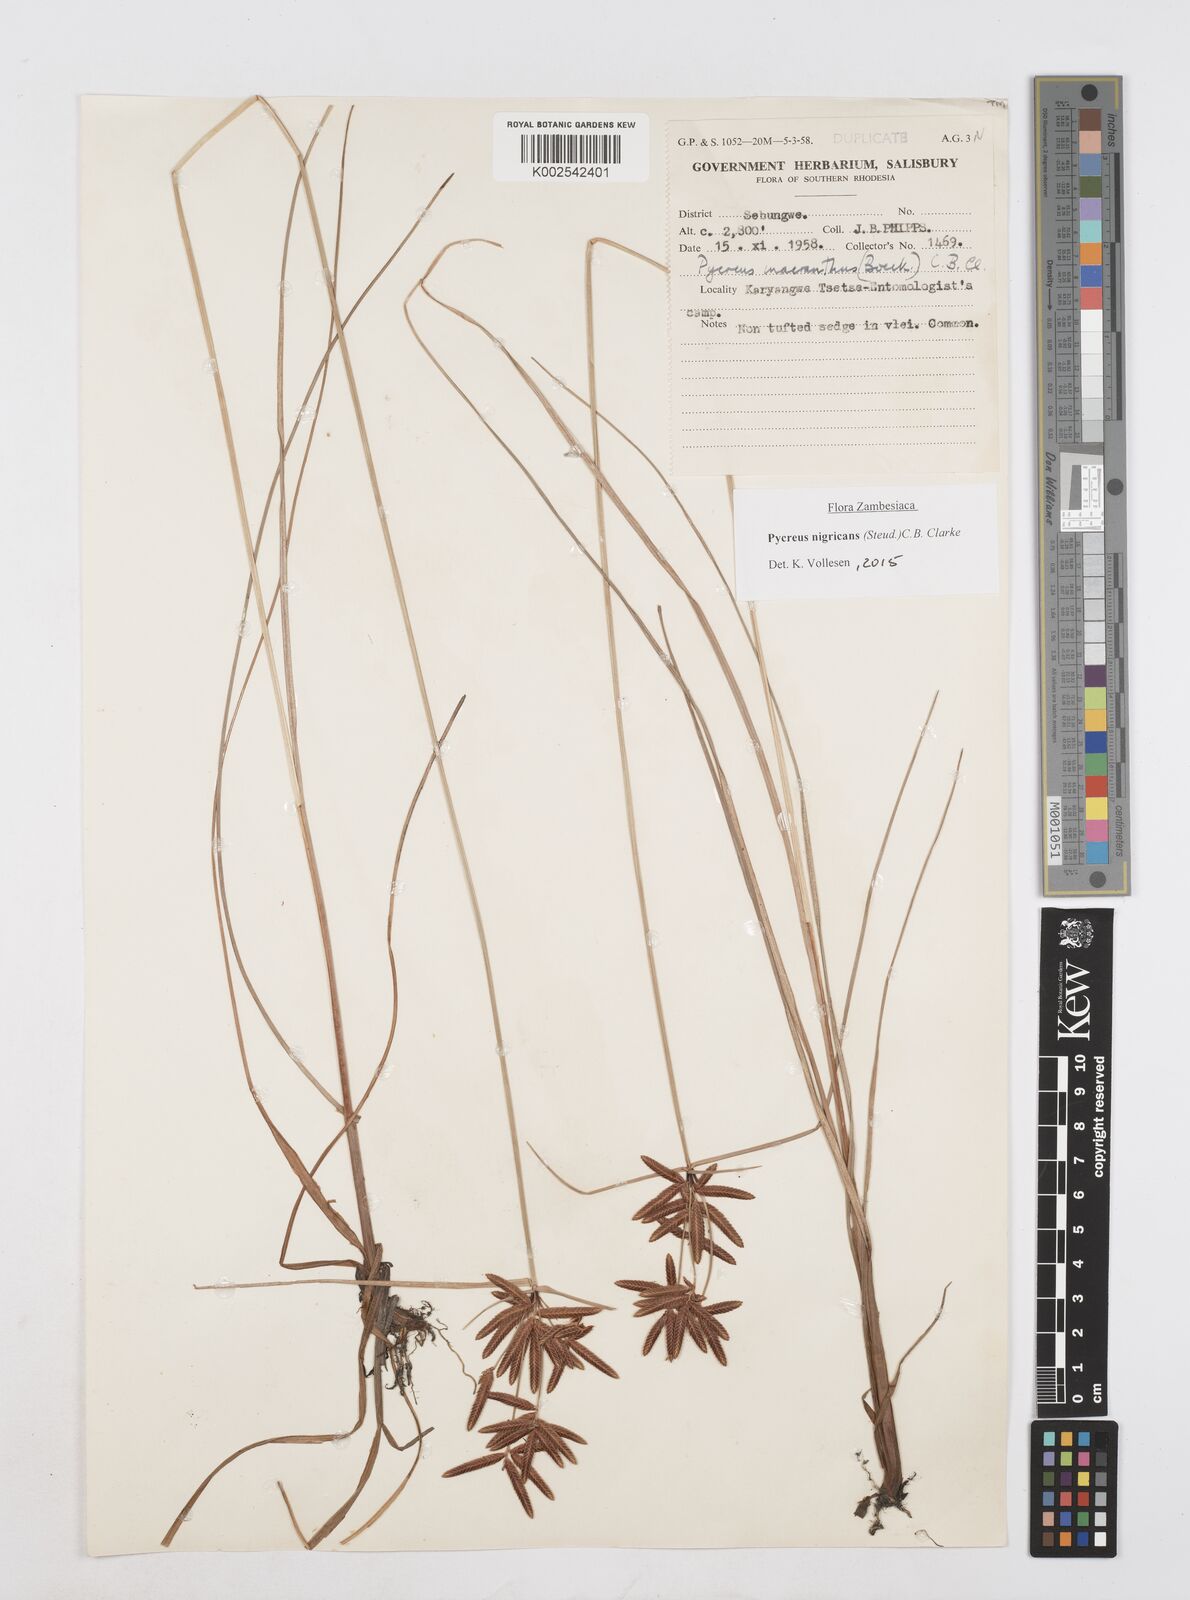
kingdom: Plantae
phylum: Tracheophyta
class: Liliopsida
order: Poales
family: Cyperaceae
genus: Cyperus
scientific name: Cyperus nigricans
